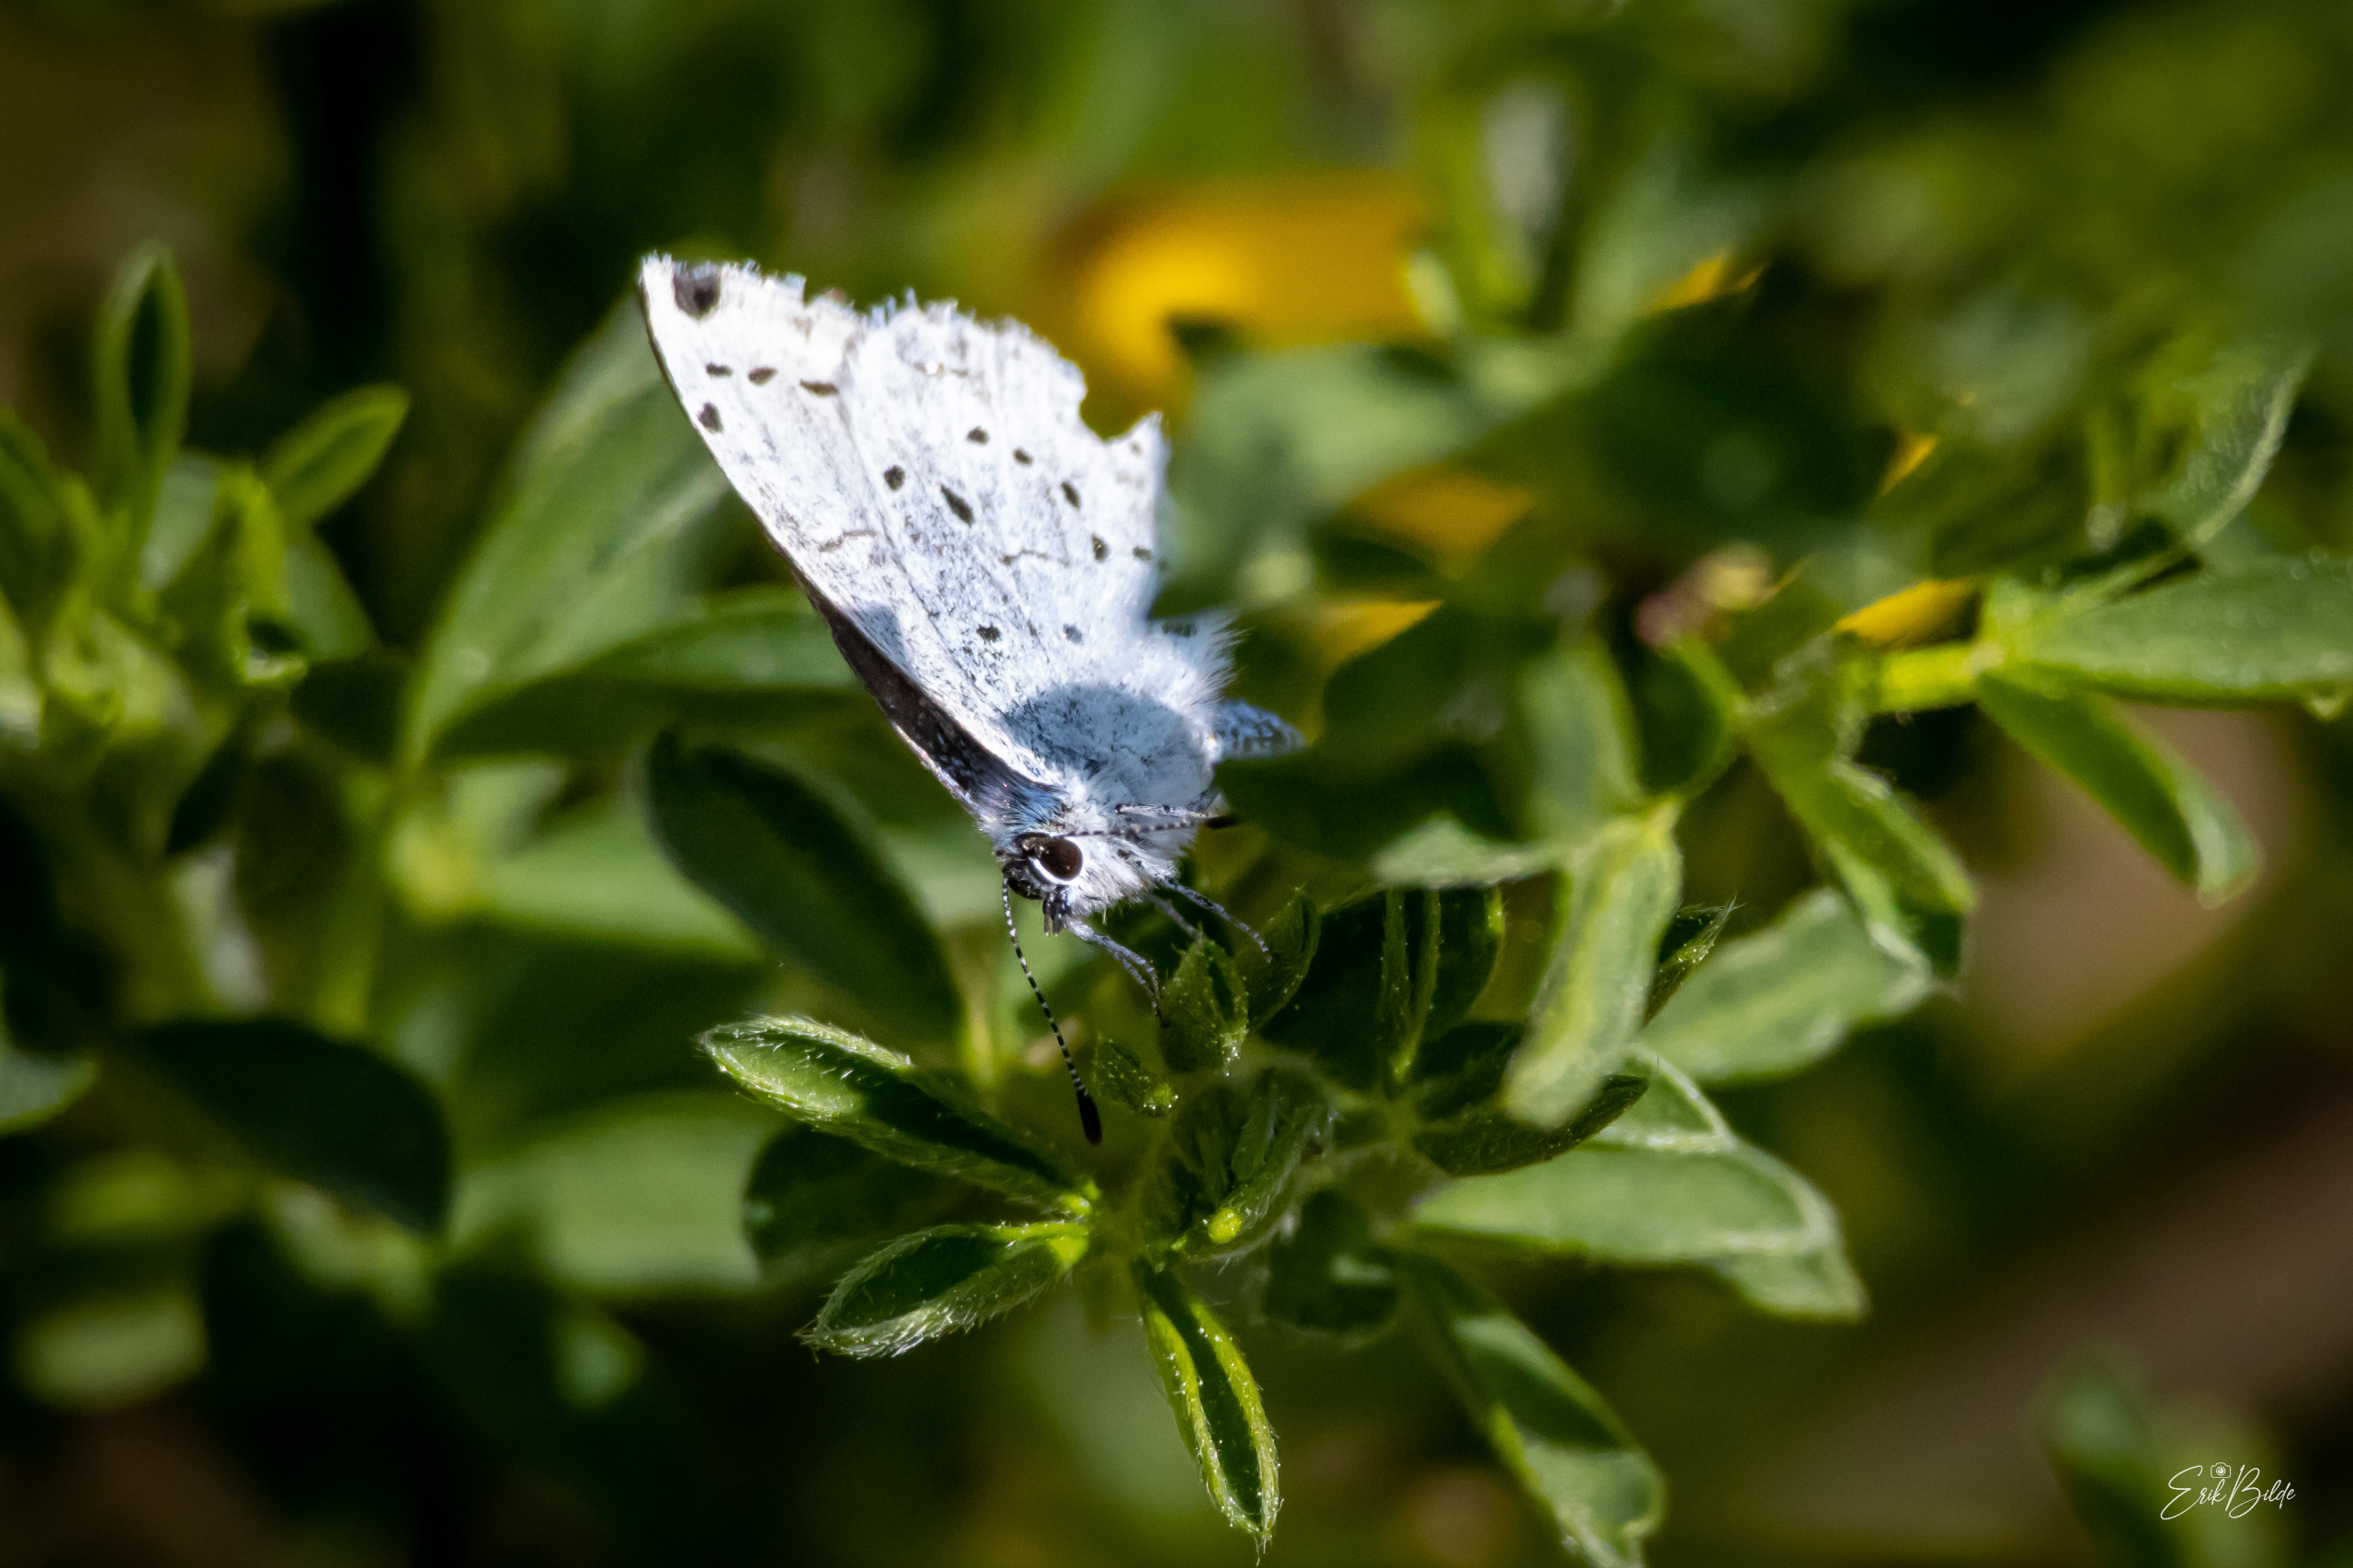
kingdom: Animalia
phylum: Arthropoda
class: Insecta
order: Lepidoptera
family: Lycaenidae
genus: Celastrina
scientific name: Celastrina argiolus
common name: Skovblåfugl
